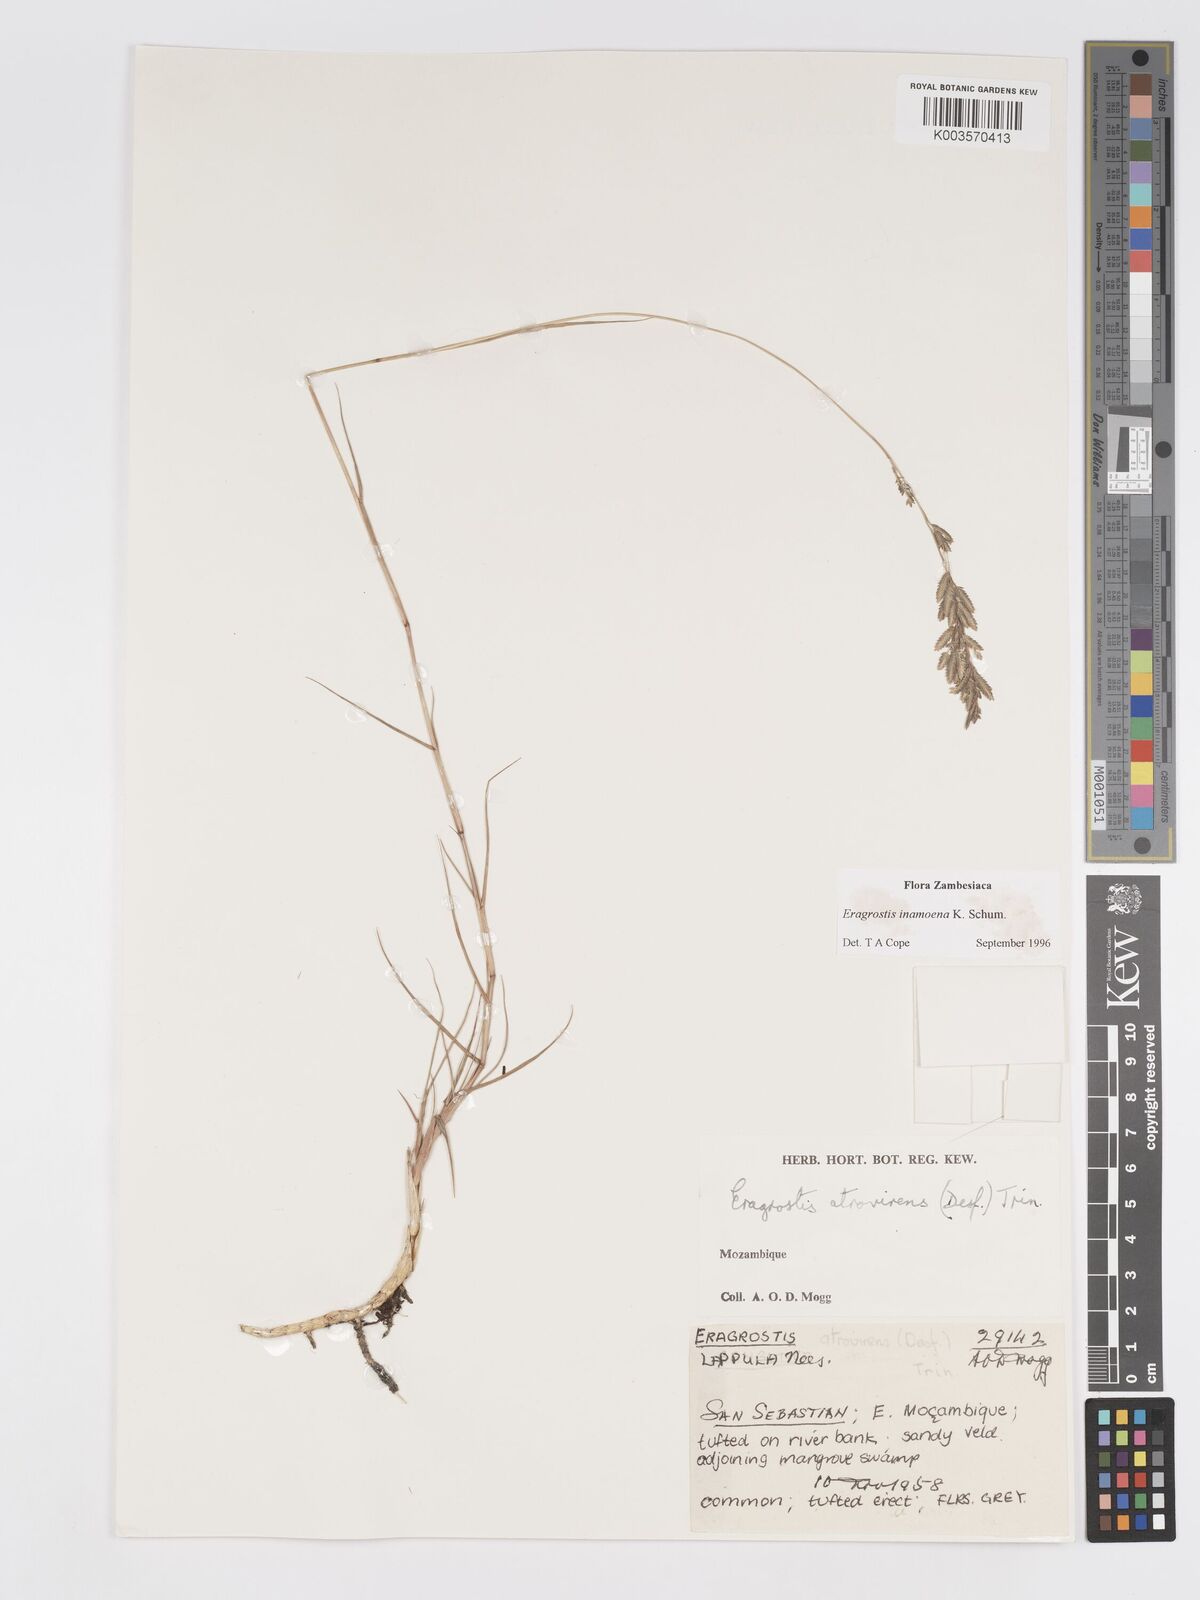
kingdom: Plantae
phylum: Tracheophyta
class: Liliopsida
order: Poales
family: Poaceae
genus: Eragrostis
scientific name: Eragrostis inamoena
